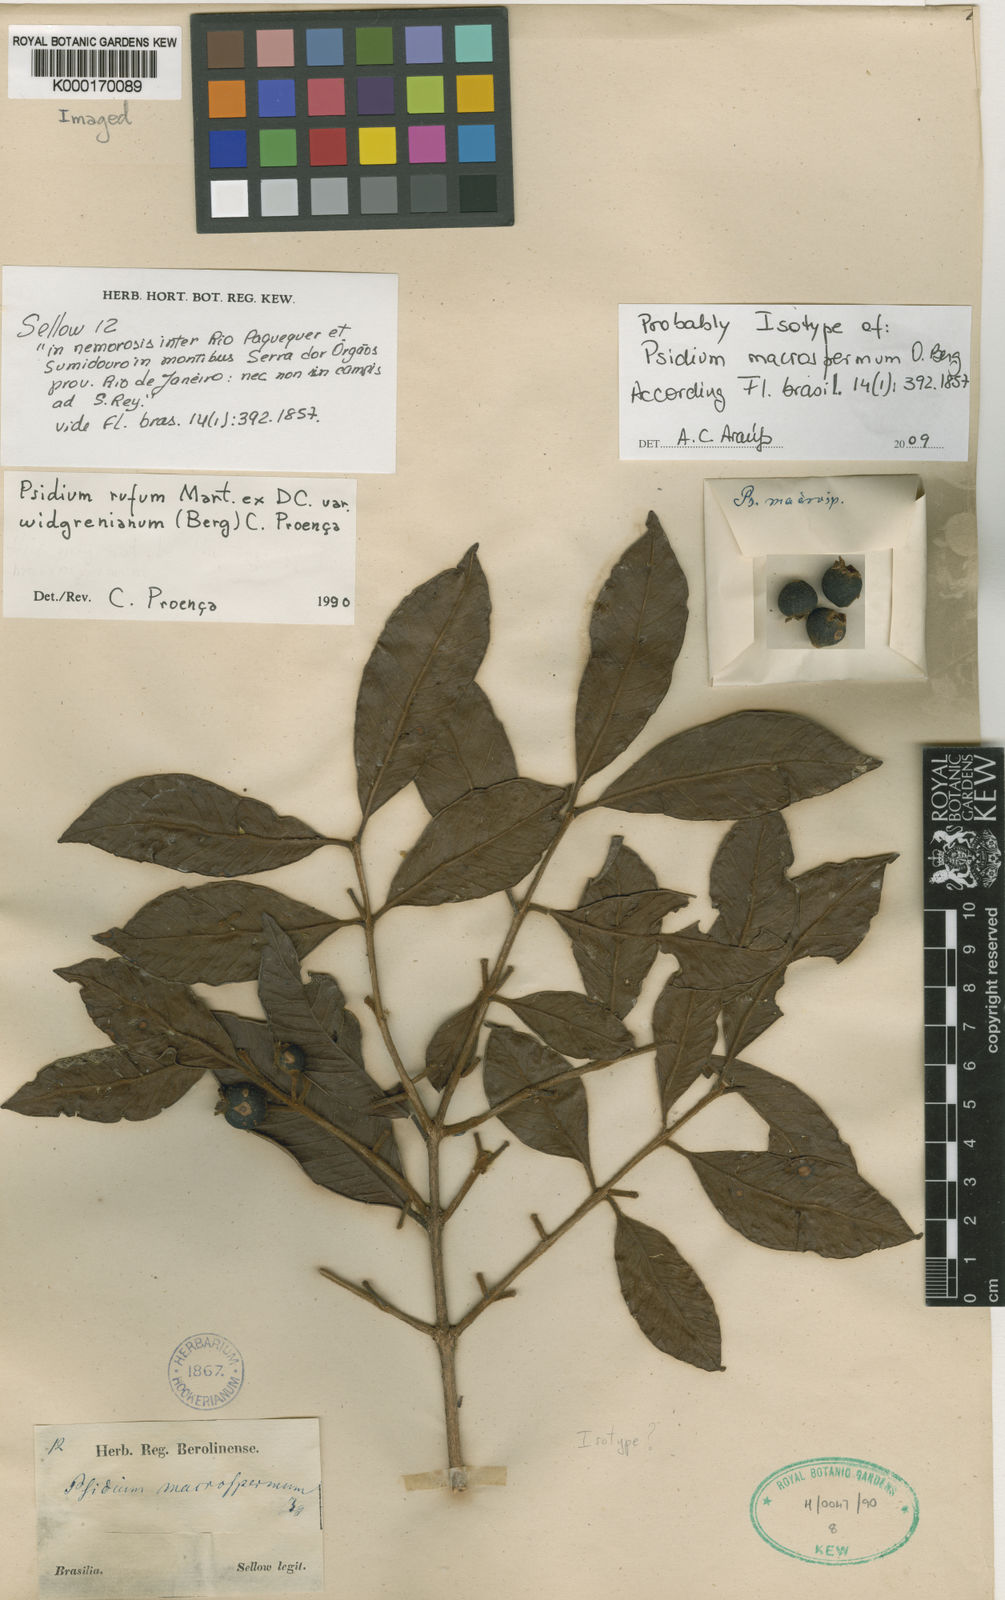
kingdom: Plantae
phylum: Tracheophyta
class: Magnoliopsida
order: Myrtales
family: Myrtaceae
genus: Psidium
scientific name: Psidium rufum
